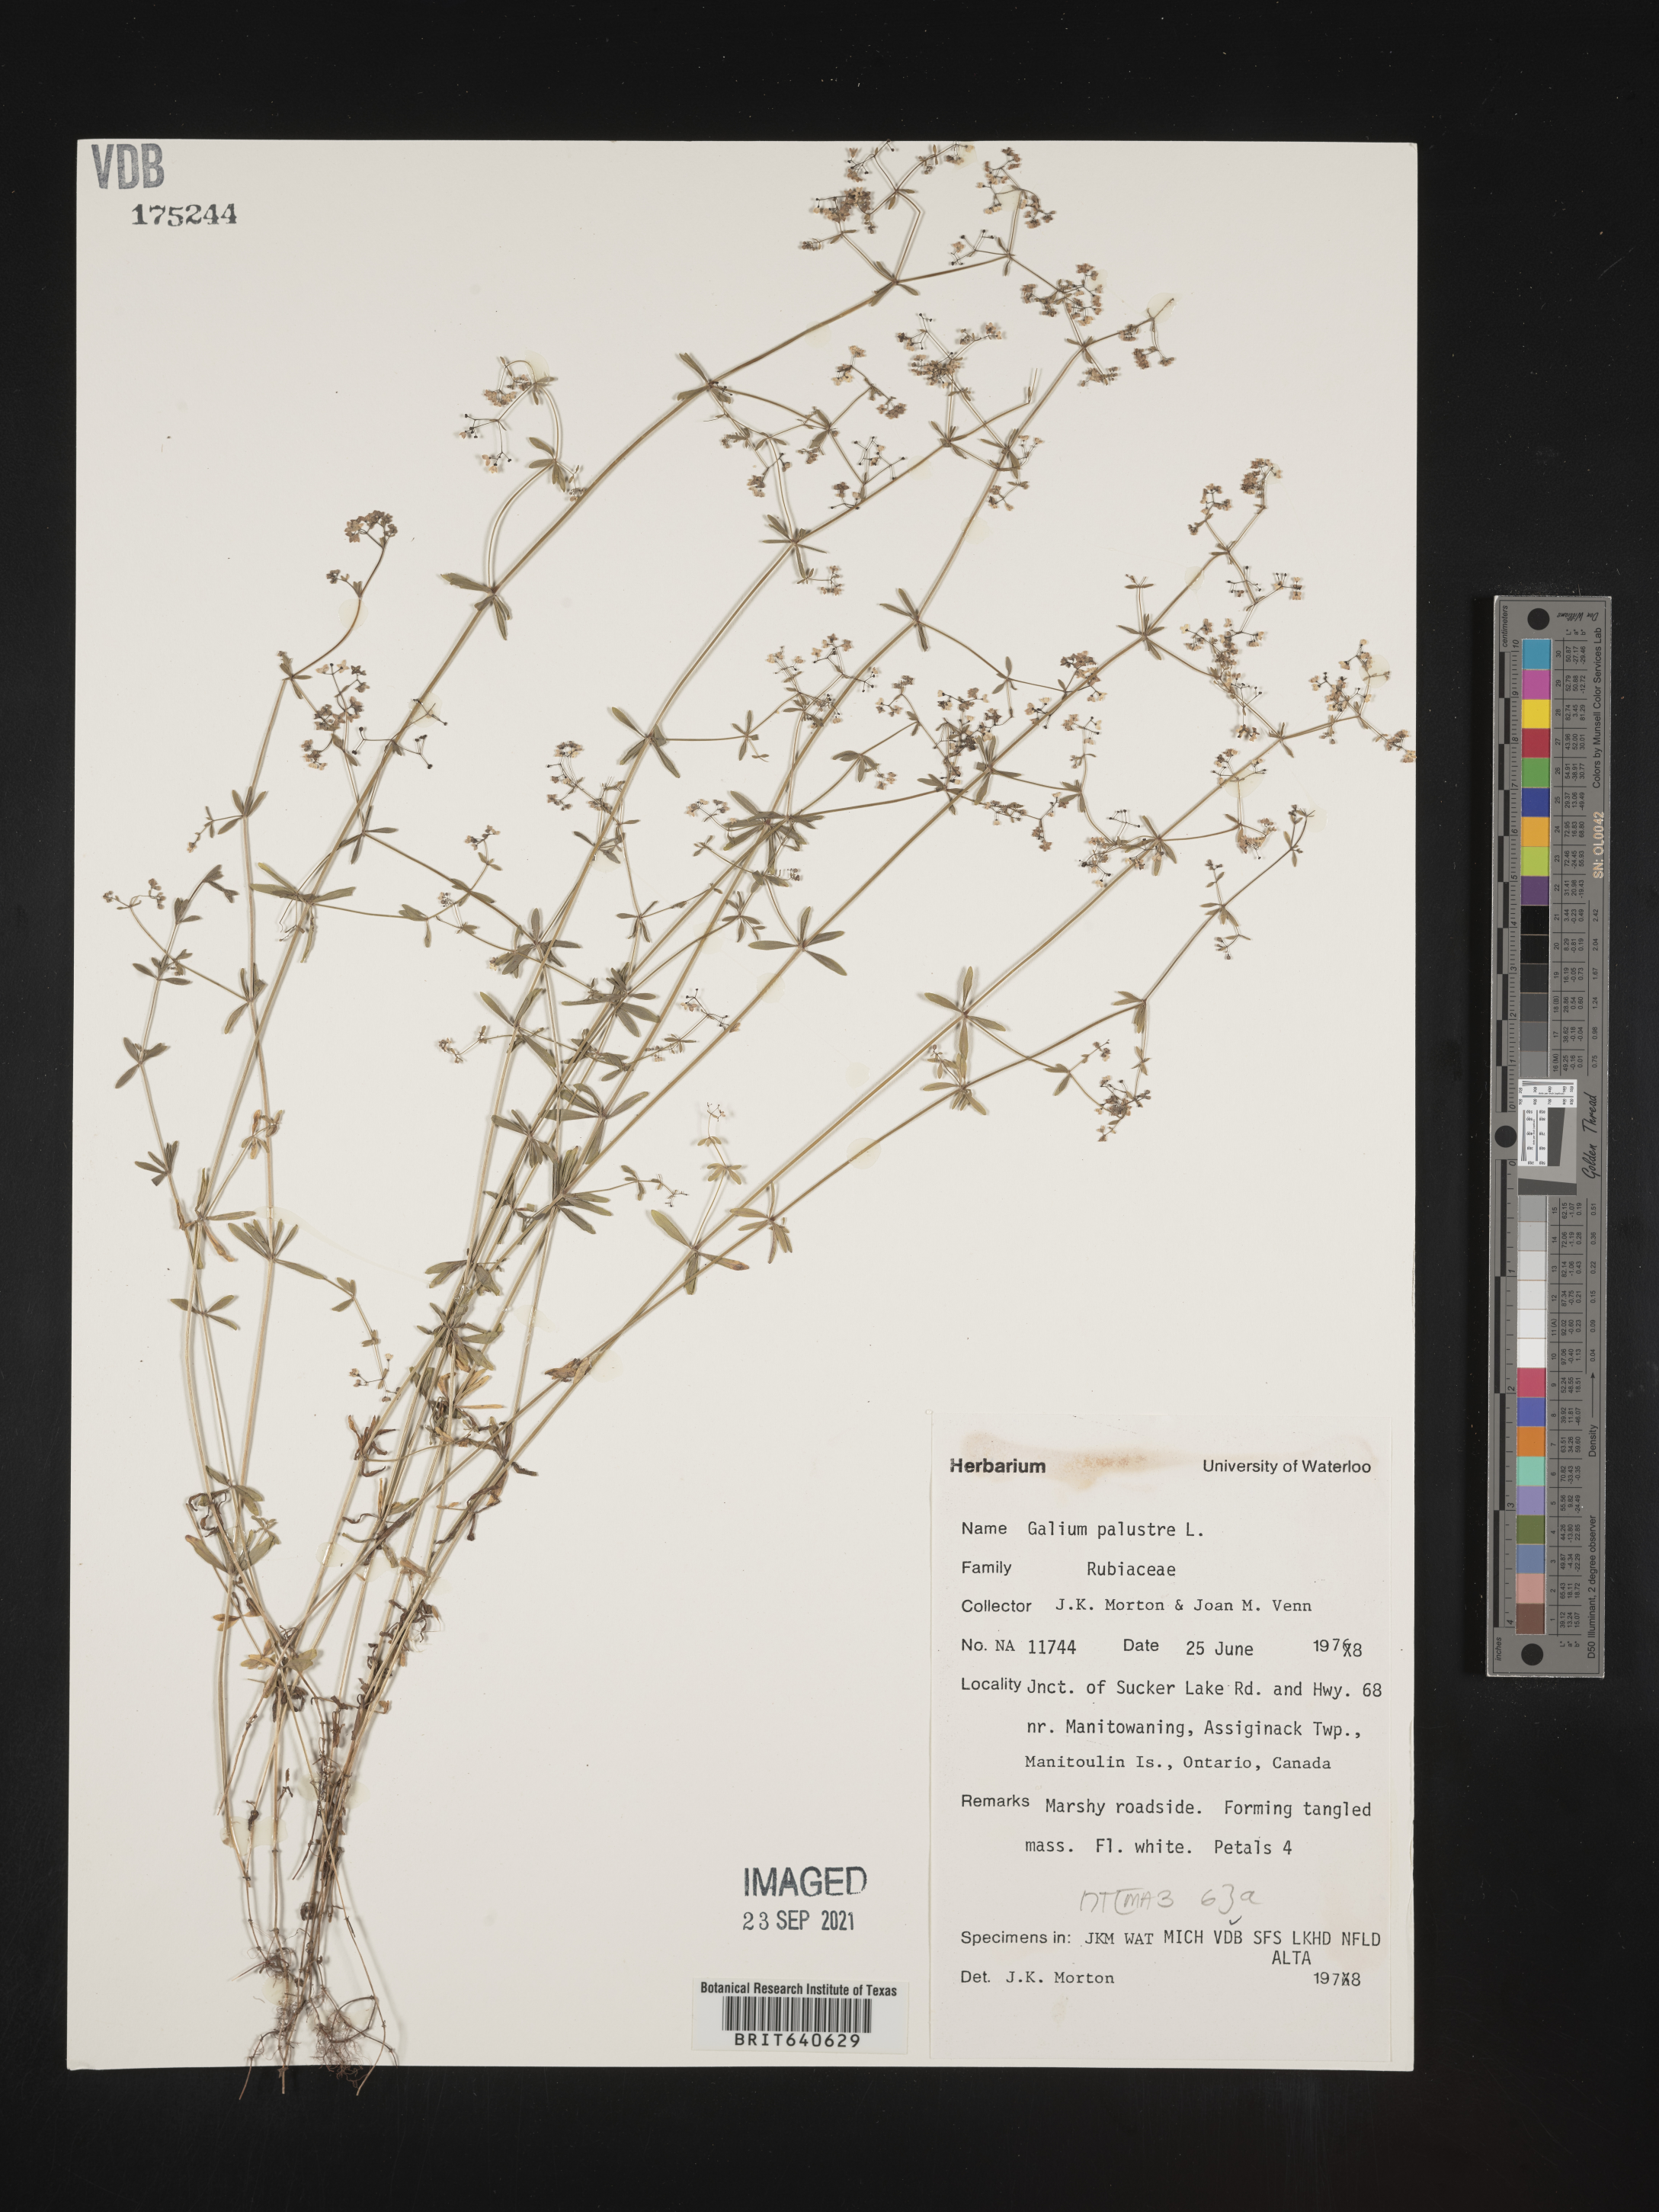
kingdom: Plantae
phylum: Tracheophyta
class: Magnoliopsida
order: Gentianales
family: Rubiaceae
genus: Galium
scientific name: Galium
